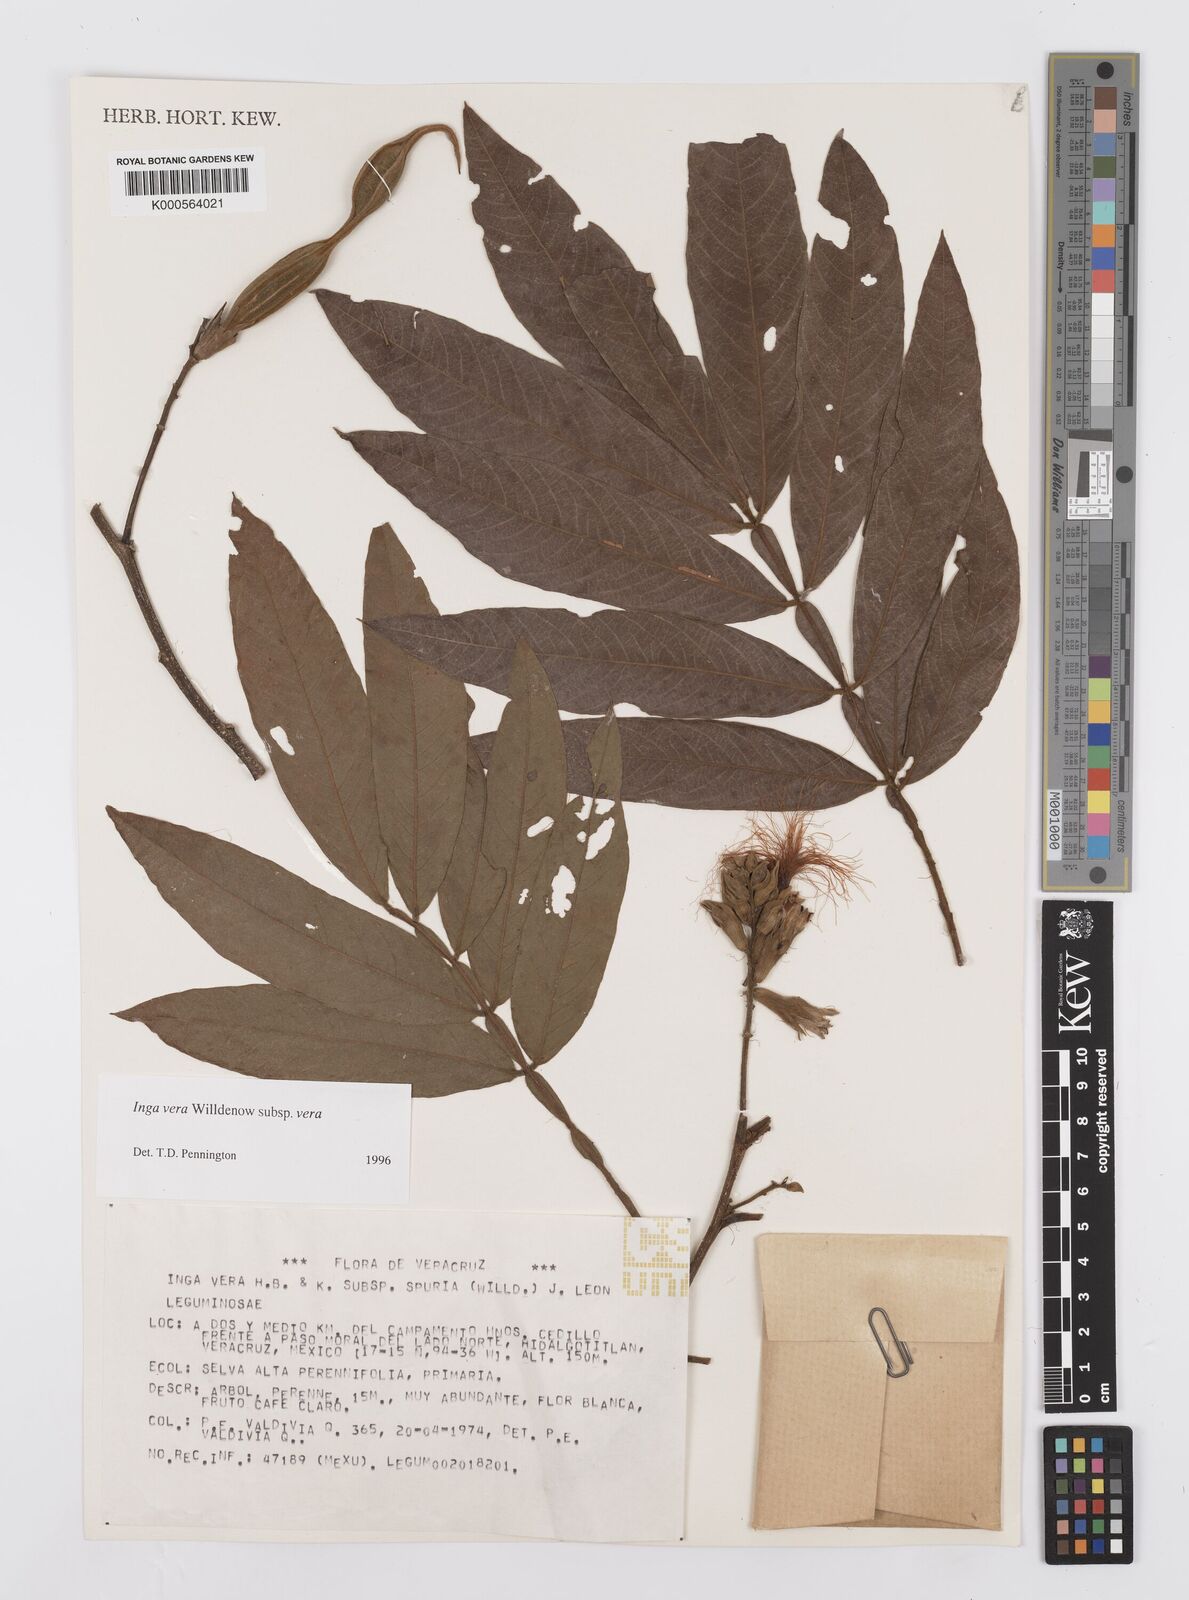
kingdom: Plantae
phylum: Tracheophyta
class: Magnoliopsida
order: Fabales
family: Fabaceae
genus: Inga
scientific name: Inga vera
